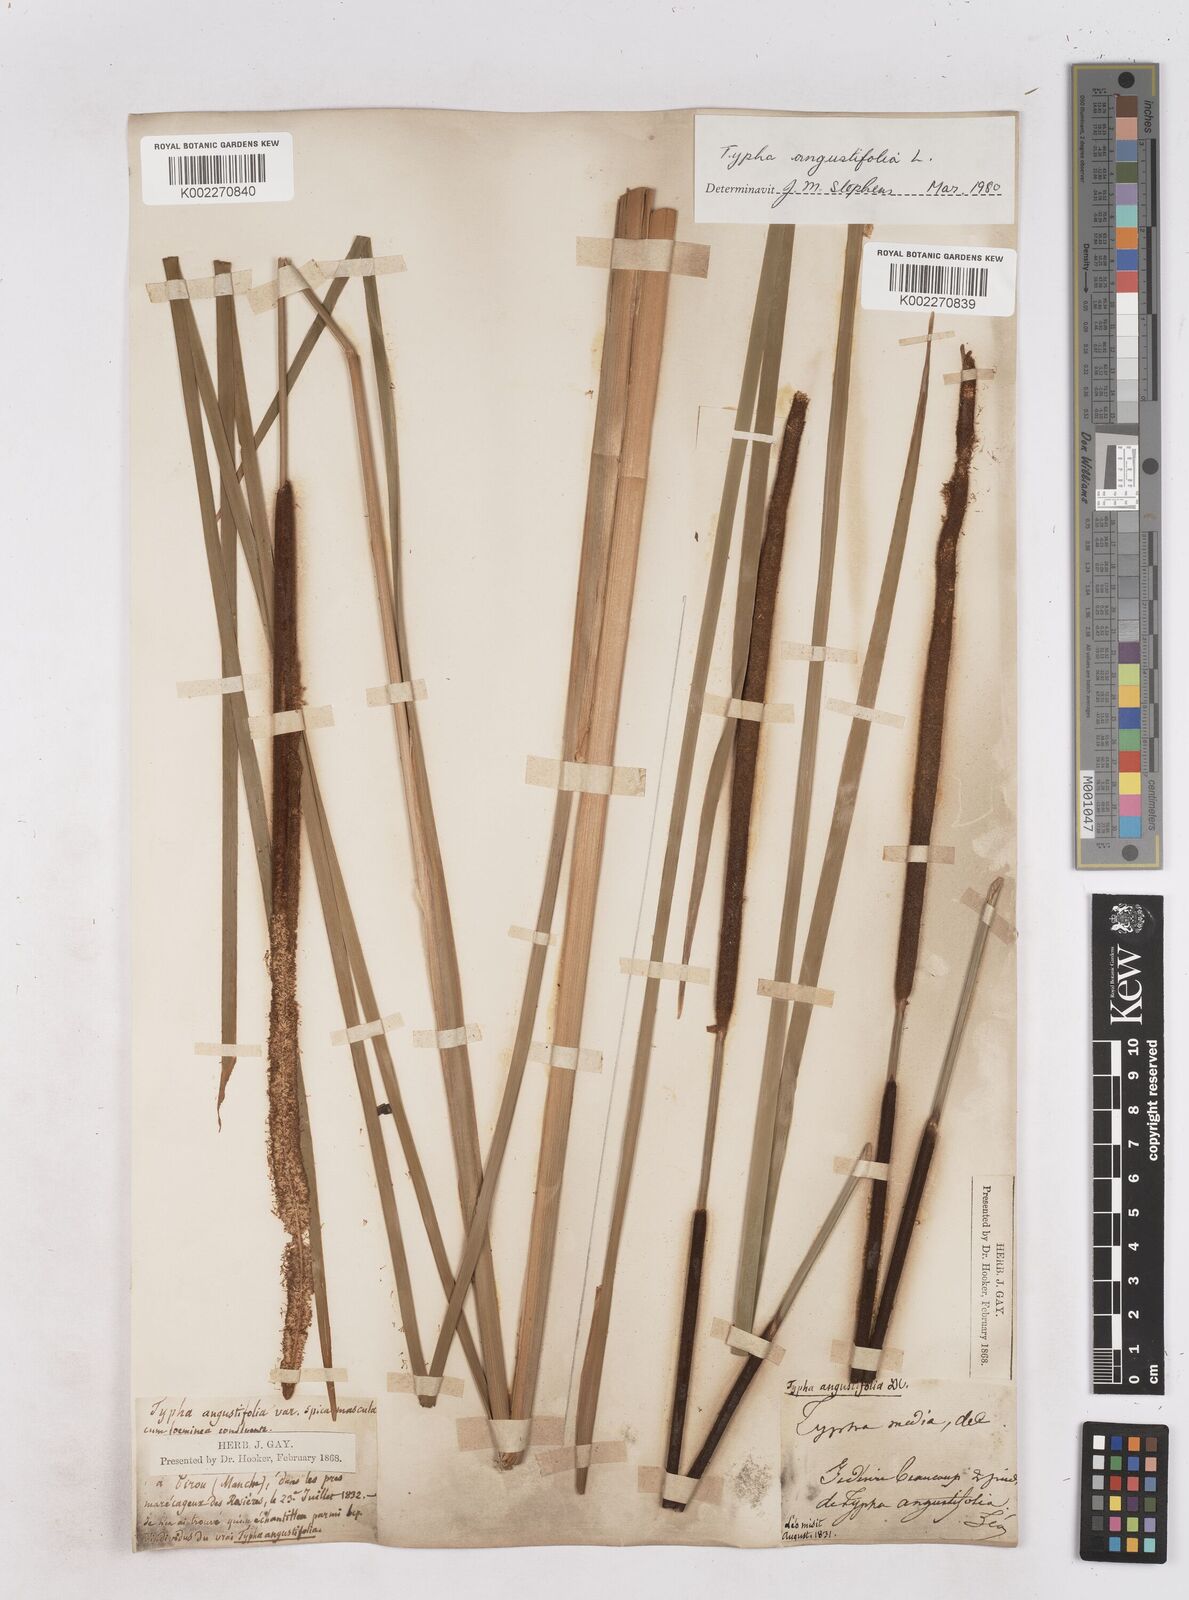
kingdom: Plantae
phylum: Tracheophyta
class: Liliopsida
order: Poales
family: Typhaceae
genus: Typha
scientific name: Typha angustifolia
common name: Lesser bulrush
